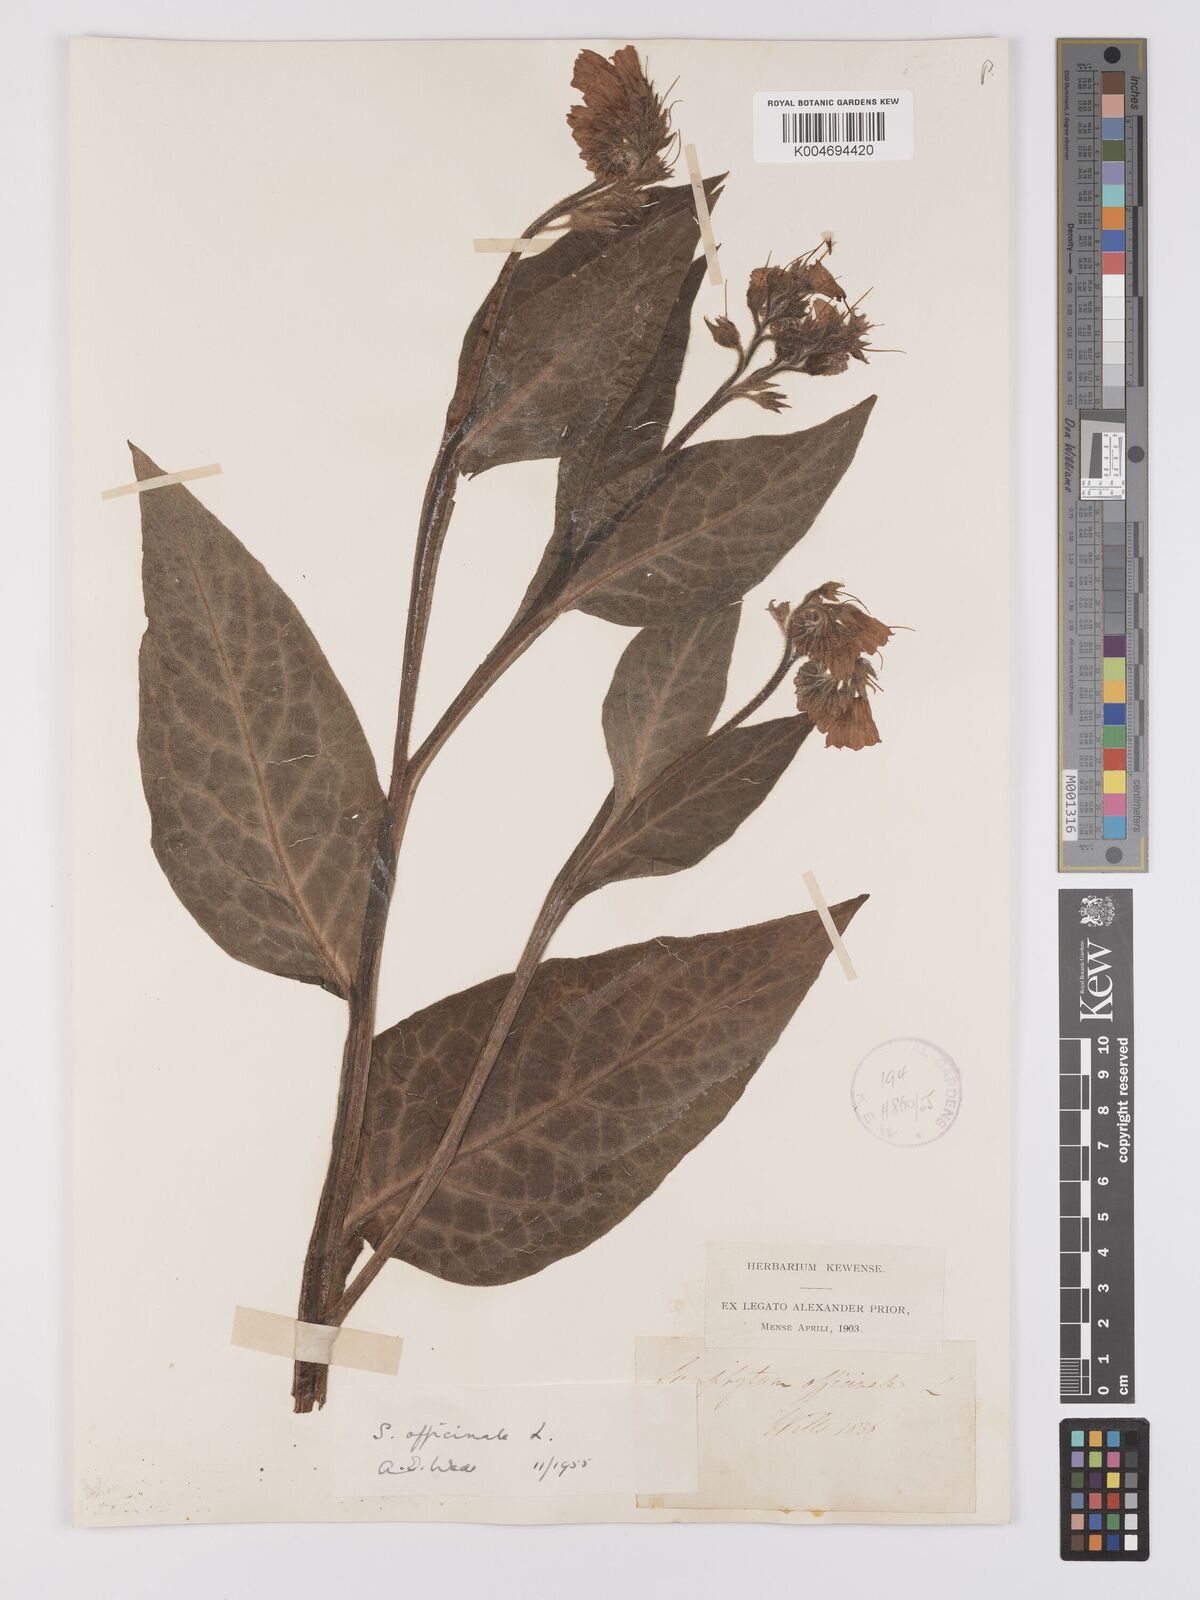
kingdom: Plantae
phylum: Tracheophyta
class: Magnoliopsida
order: Boraginales
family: Boraginaceae
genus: Symphytum
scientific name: Symphytum officinale
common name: Common comfrey
